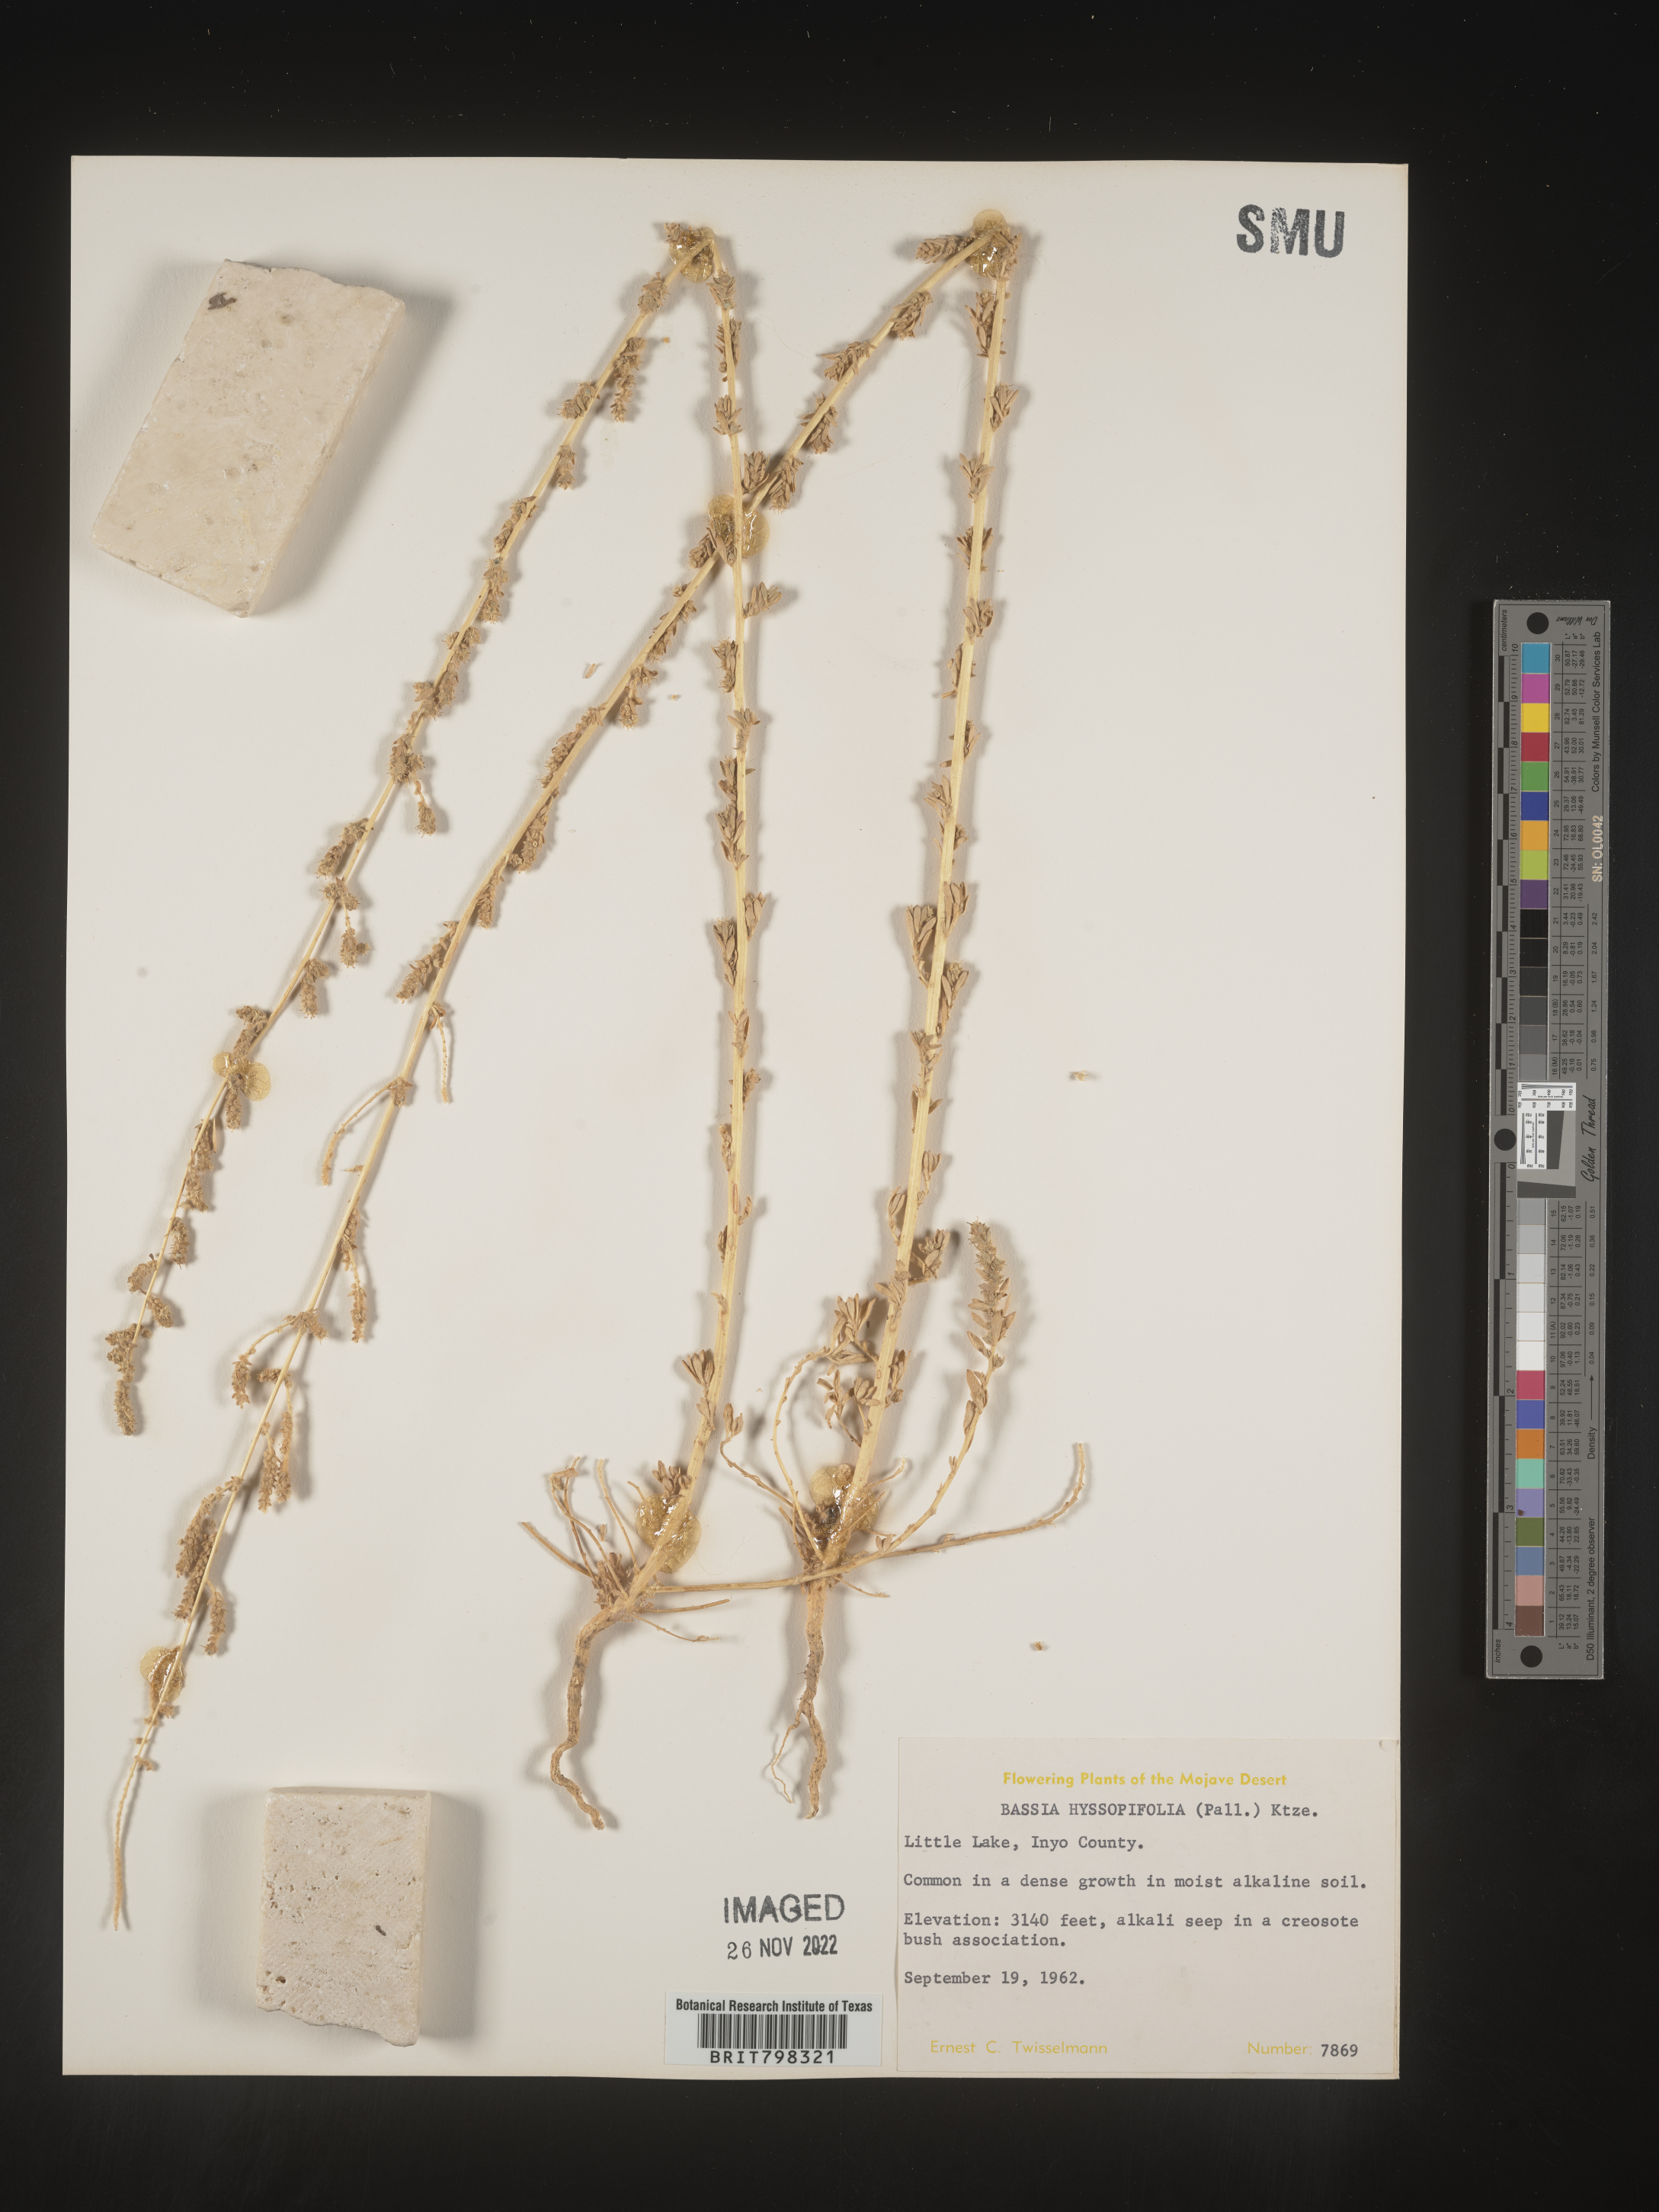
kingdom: Plantae
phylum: Tracheophyta
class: Magnoliopsida
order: Caryophyllales
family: Amaranthaceae
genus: Bassia
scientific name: Bassia hyssopifolia
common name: Fivehorn smotherweed
